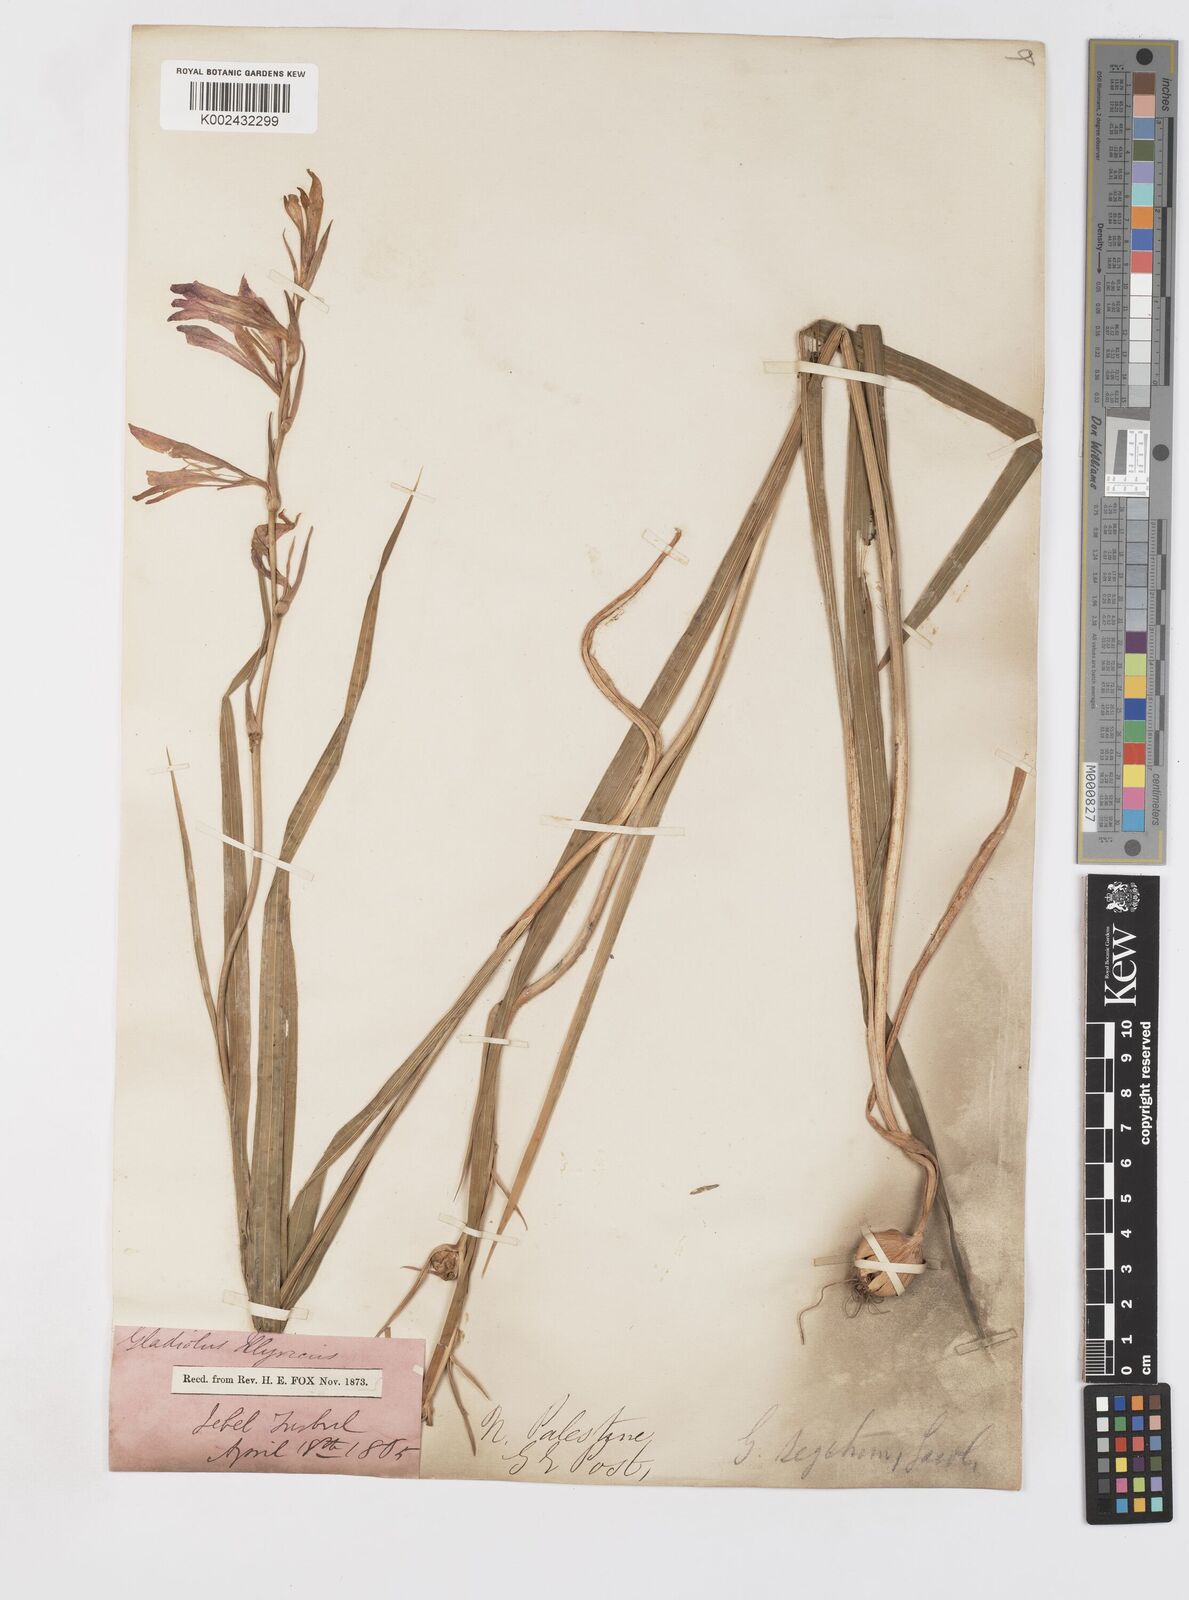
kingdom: Plantae
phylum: Tracheophyta
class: Liliopsida
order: Asparagales
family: Iridaceae
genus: Gladiolus
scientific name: Gladiolus italicus
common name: Field gladiolus
